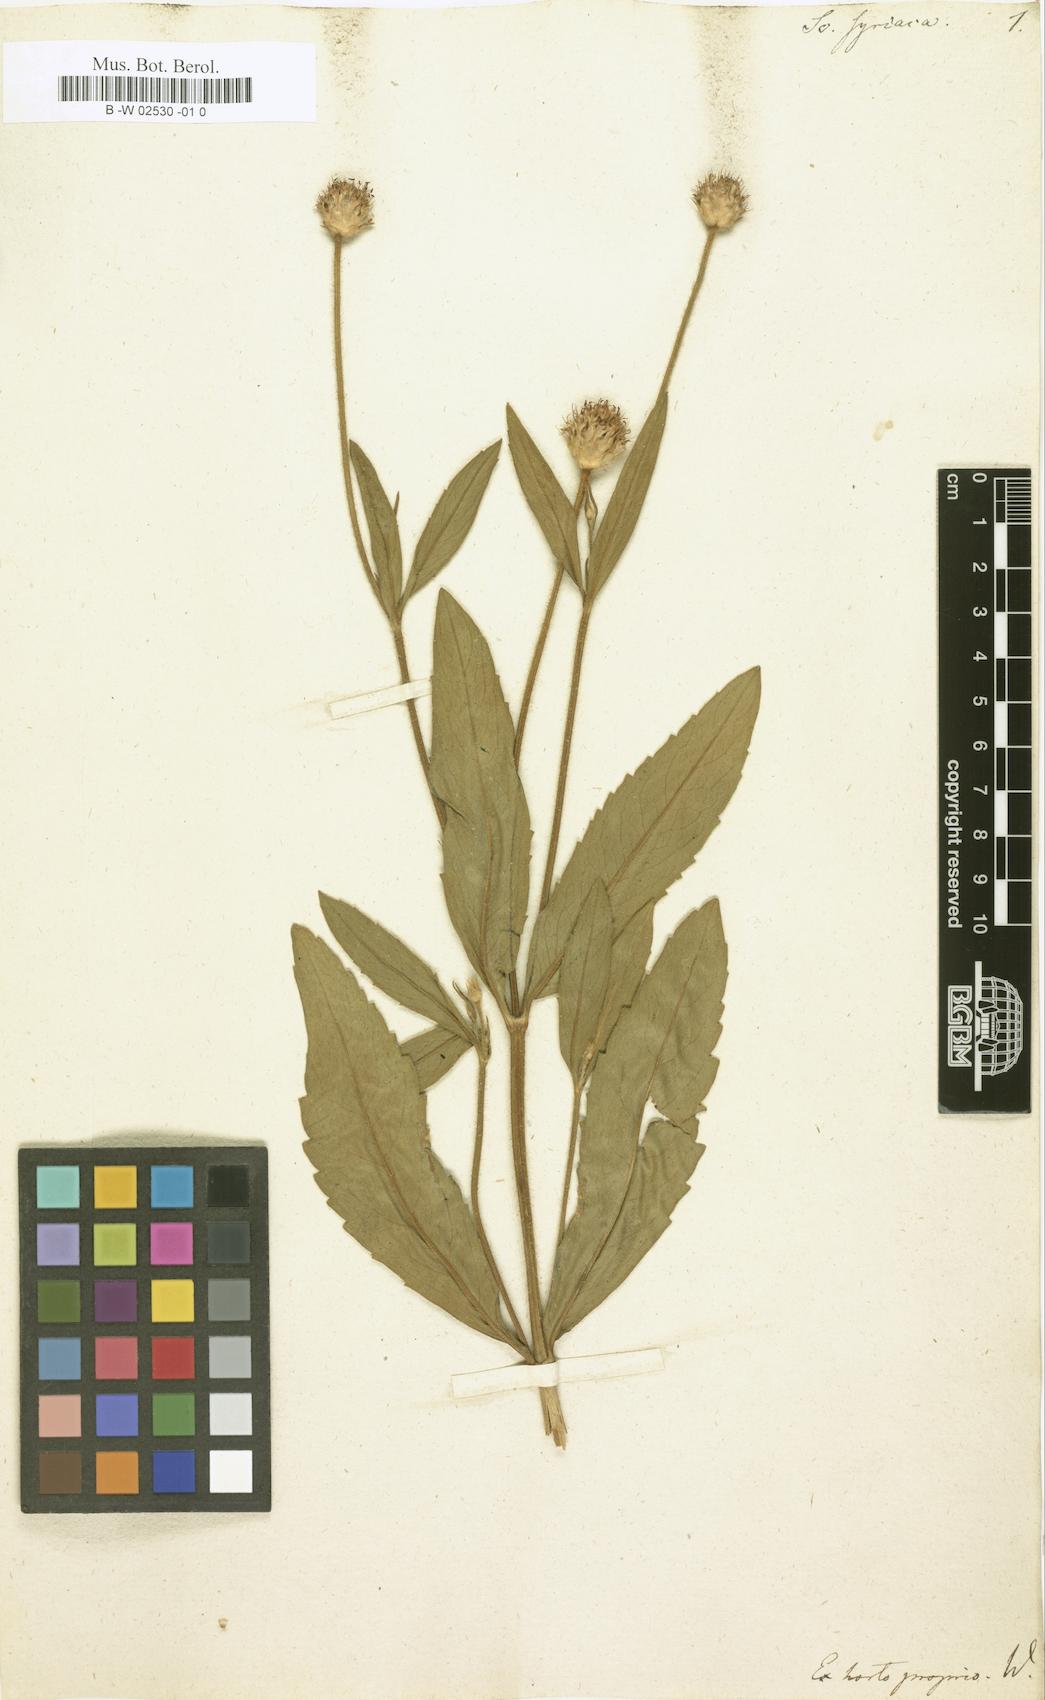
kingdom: Plantae
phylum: Tracheophyta
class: Magnoliopsida
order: Dipsacales
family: Caprifoliaceae
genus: Scabiosa
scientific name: Scabiosa syriaca
